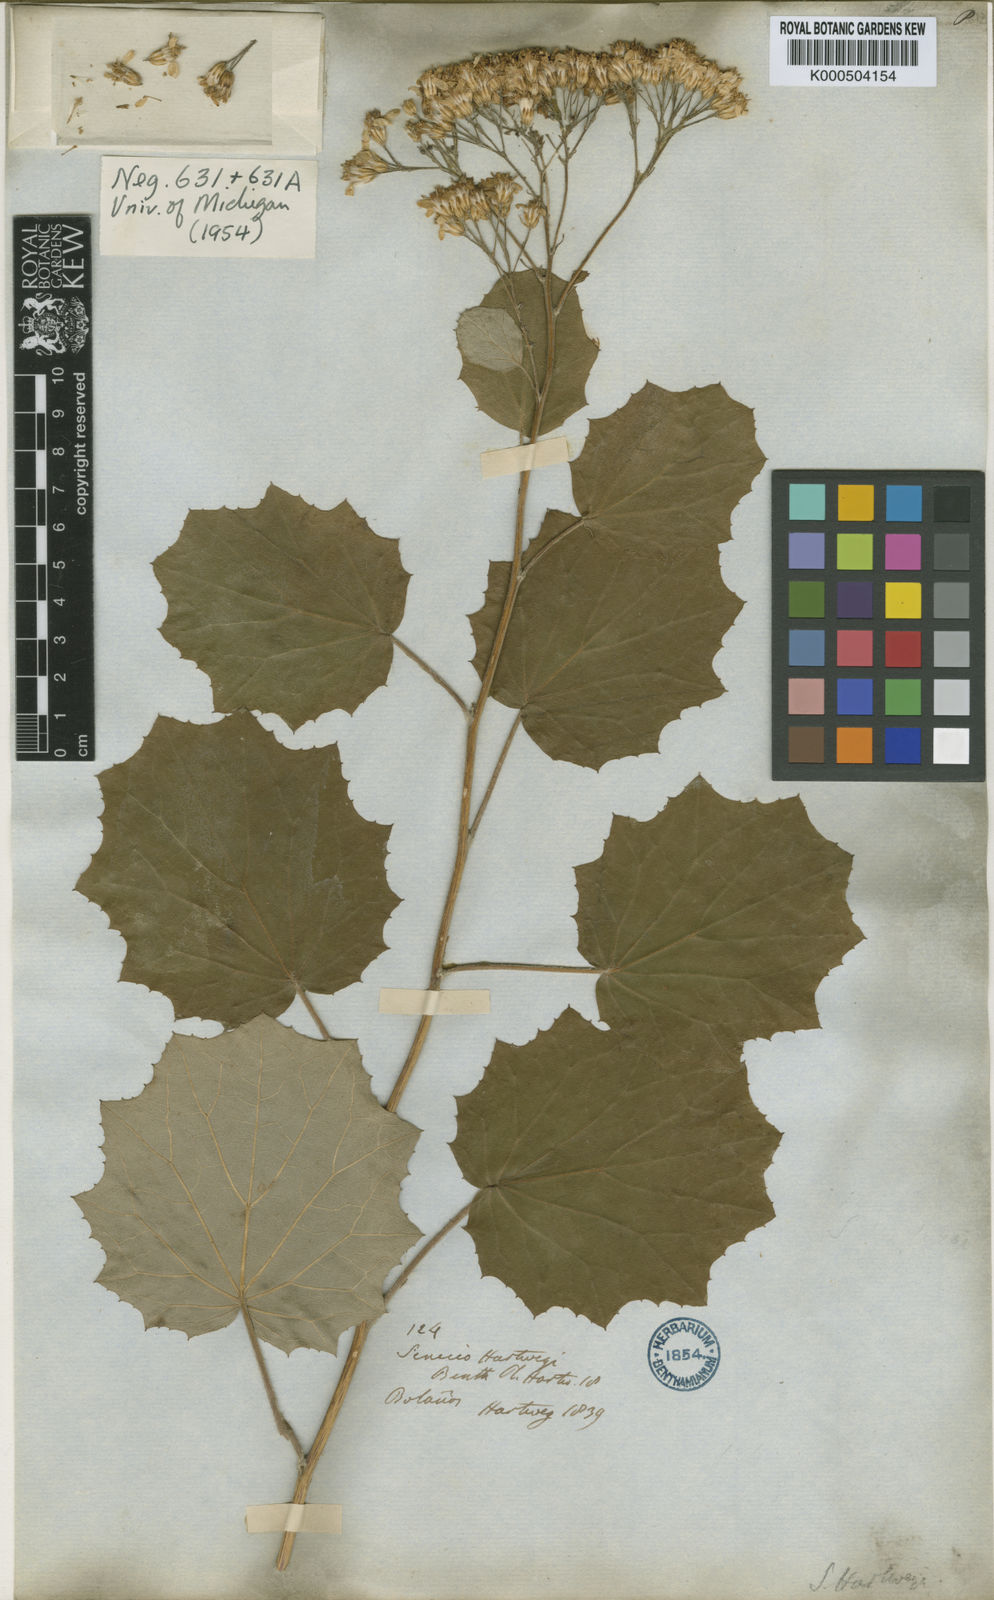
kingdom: Plantae
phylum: Tracheophyta
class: Magnoliopsida
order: Asterales
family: Asteraceae
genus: Roldana
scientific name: Roldana hartwegii
